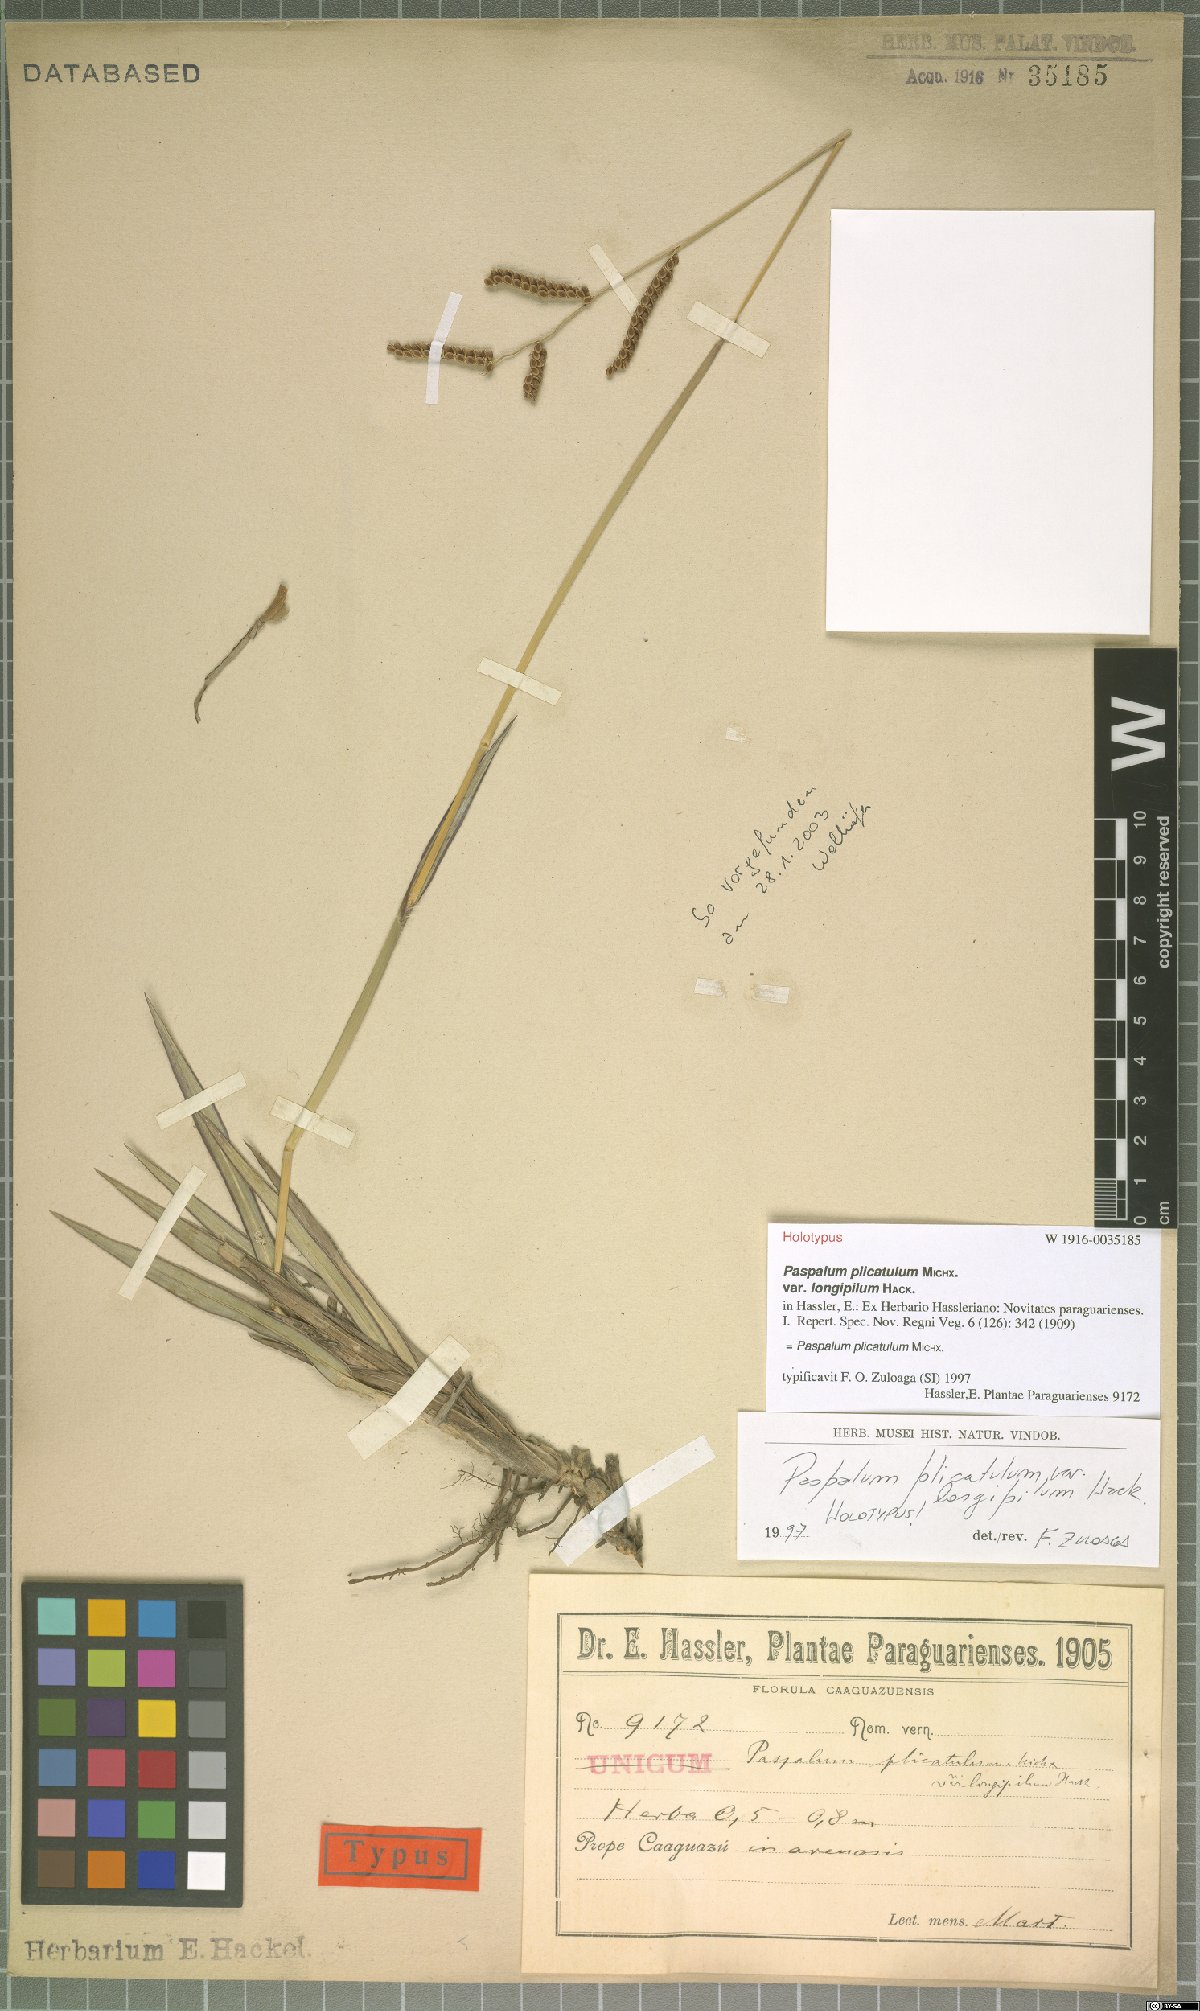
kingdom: Plantae
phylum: Tracheophyta
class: Liliopsida
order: Poales
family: Poaceae
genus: Paspalum
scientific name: Paspalum plicatulum
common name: Top paspalum
